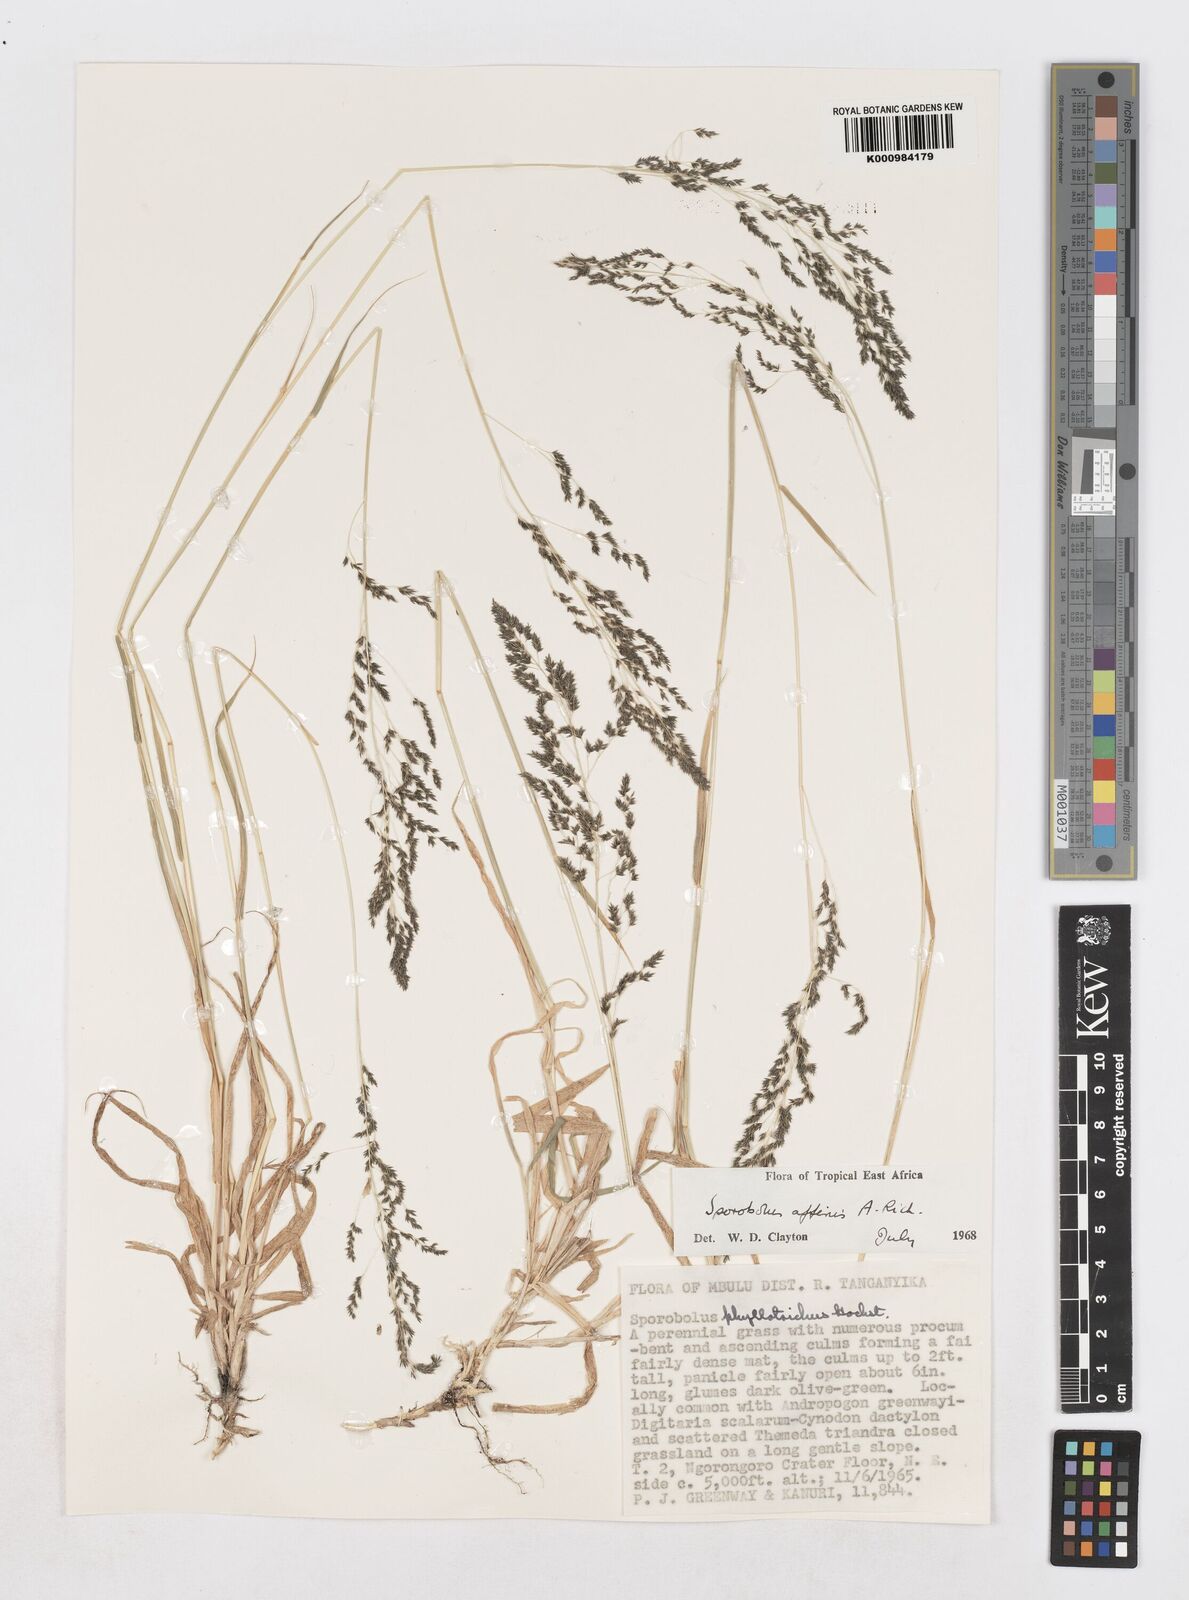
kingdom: Plantae
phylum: Tracheophyta
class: Liliopsida
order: Poales
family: Poaceae
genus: Sporobolus
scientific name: Sporobolus confinis
